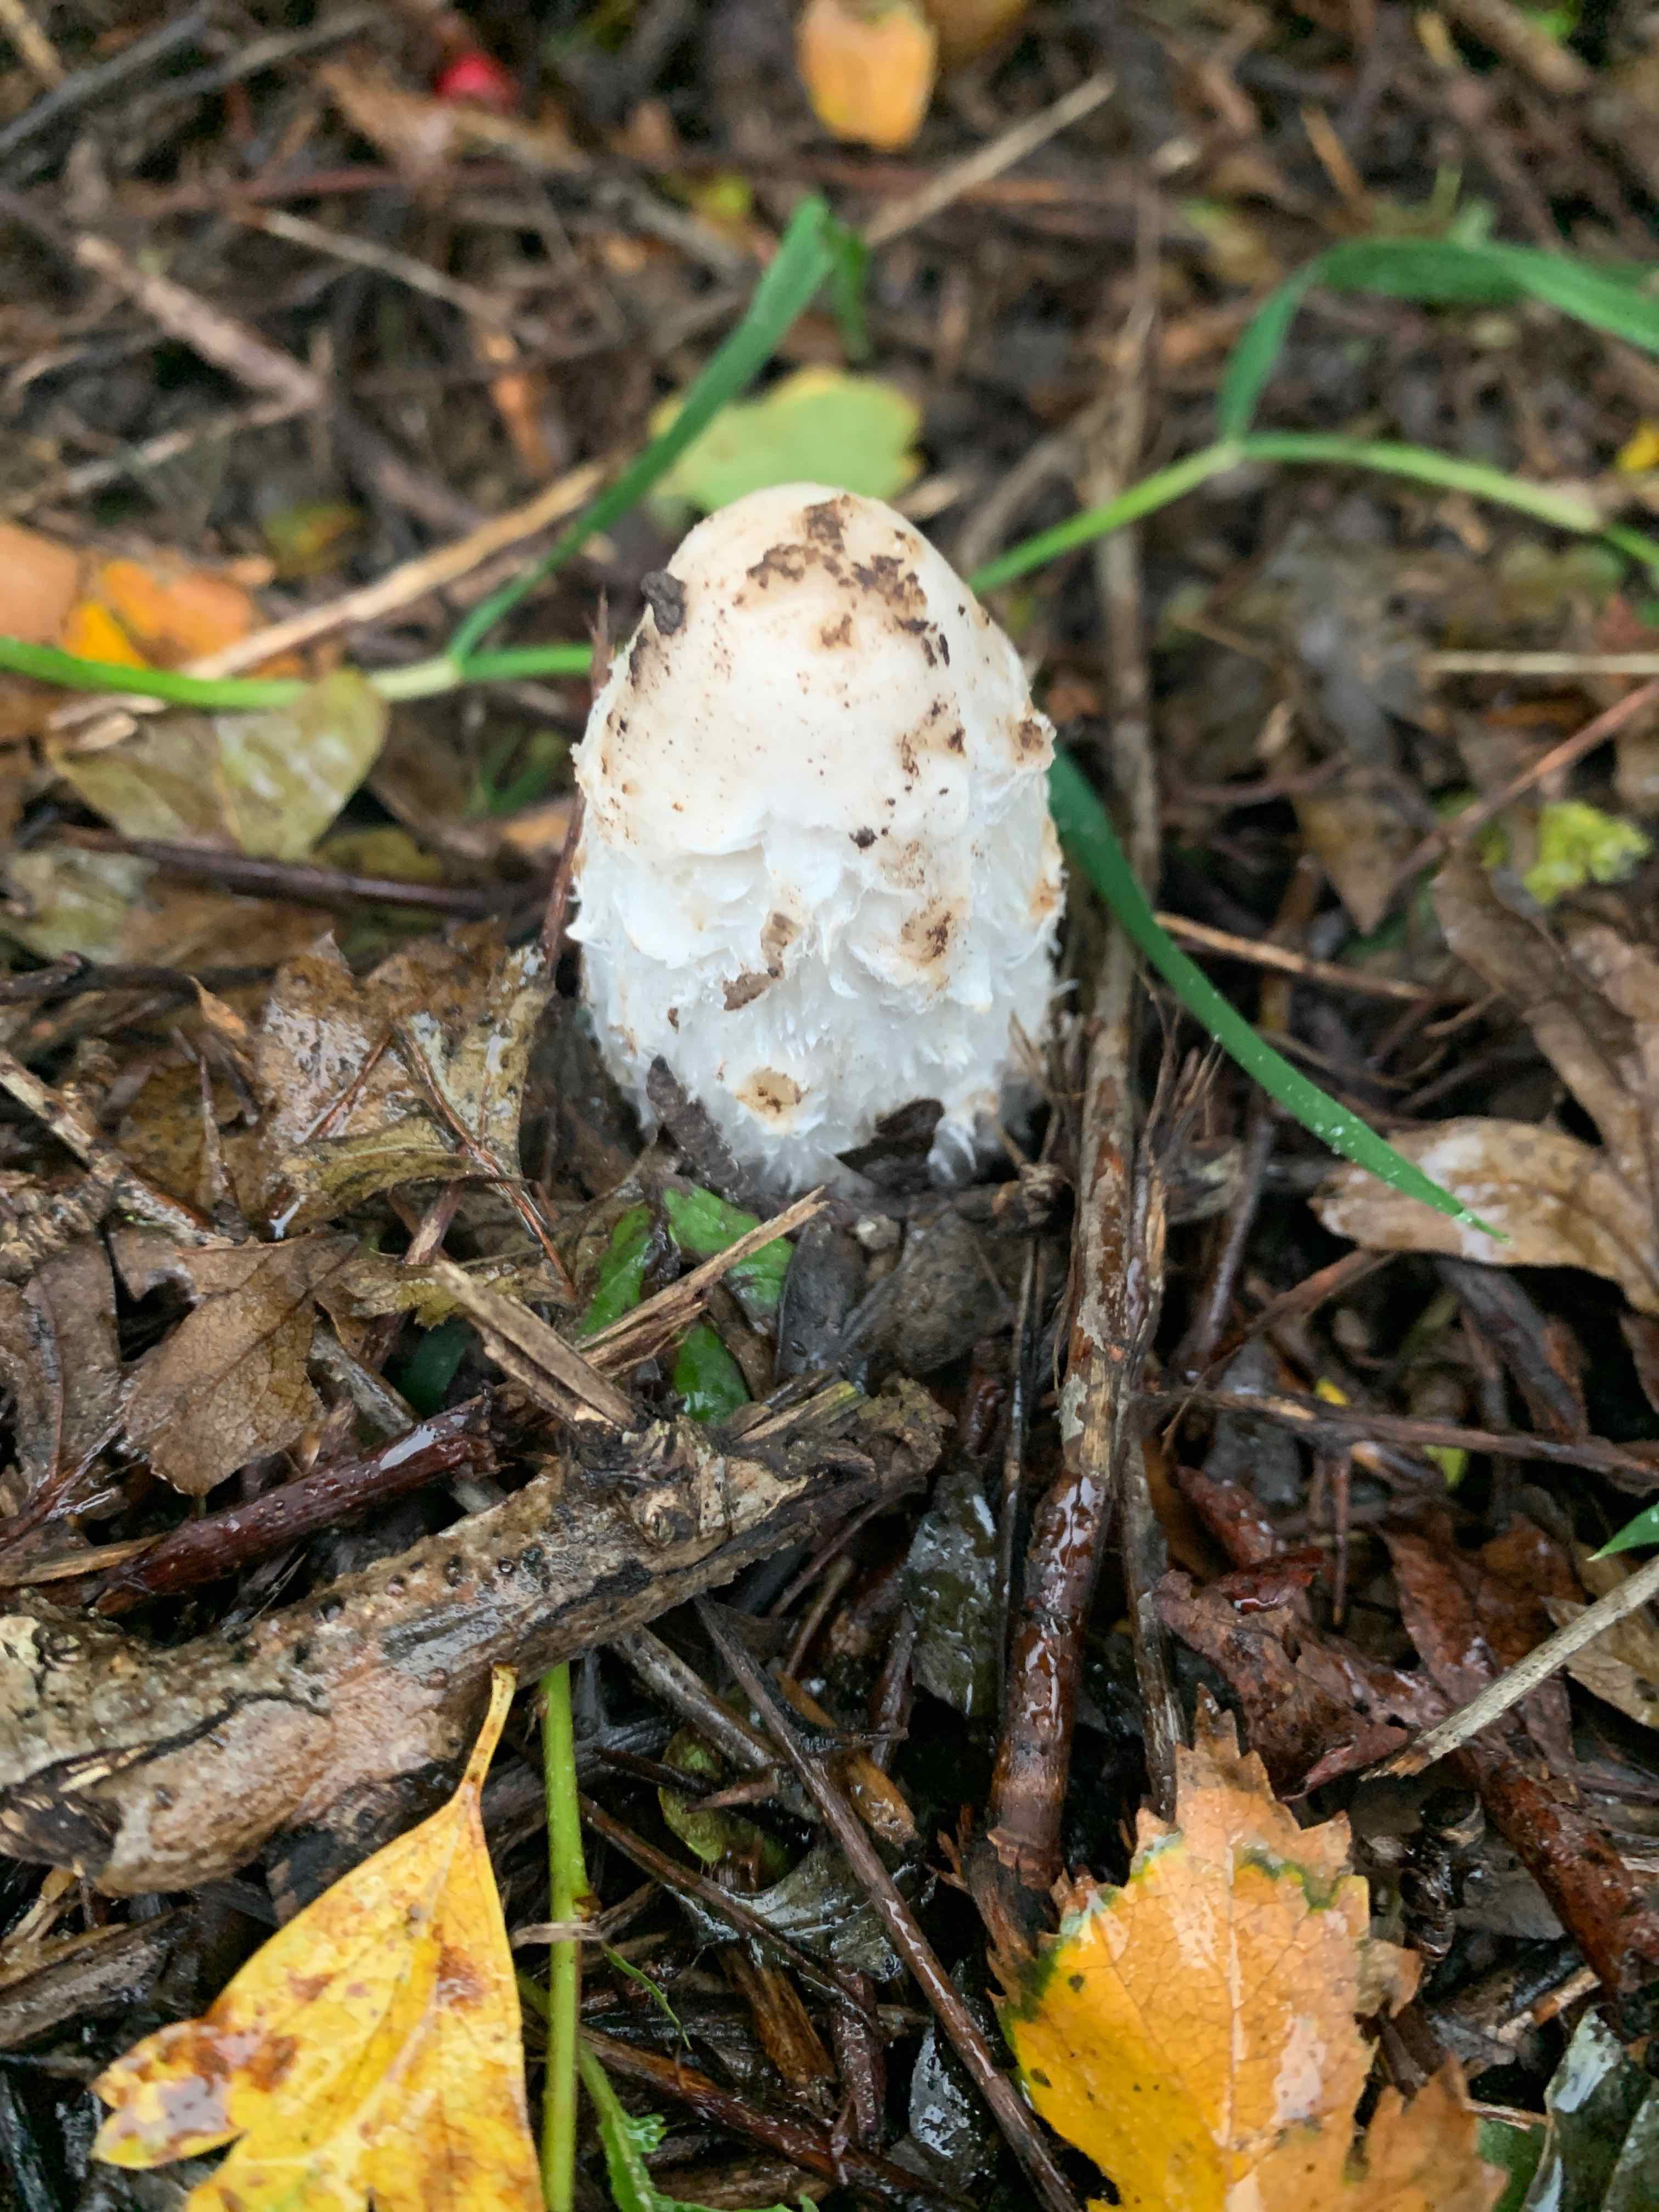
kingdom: Fungi
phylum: Basidiomycota
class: Agaricomycetes
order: Agaricales
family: Agaricaceae
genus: Coprinus
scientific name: Coprinus comatus
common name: stor parykhat
